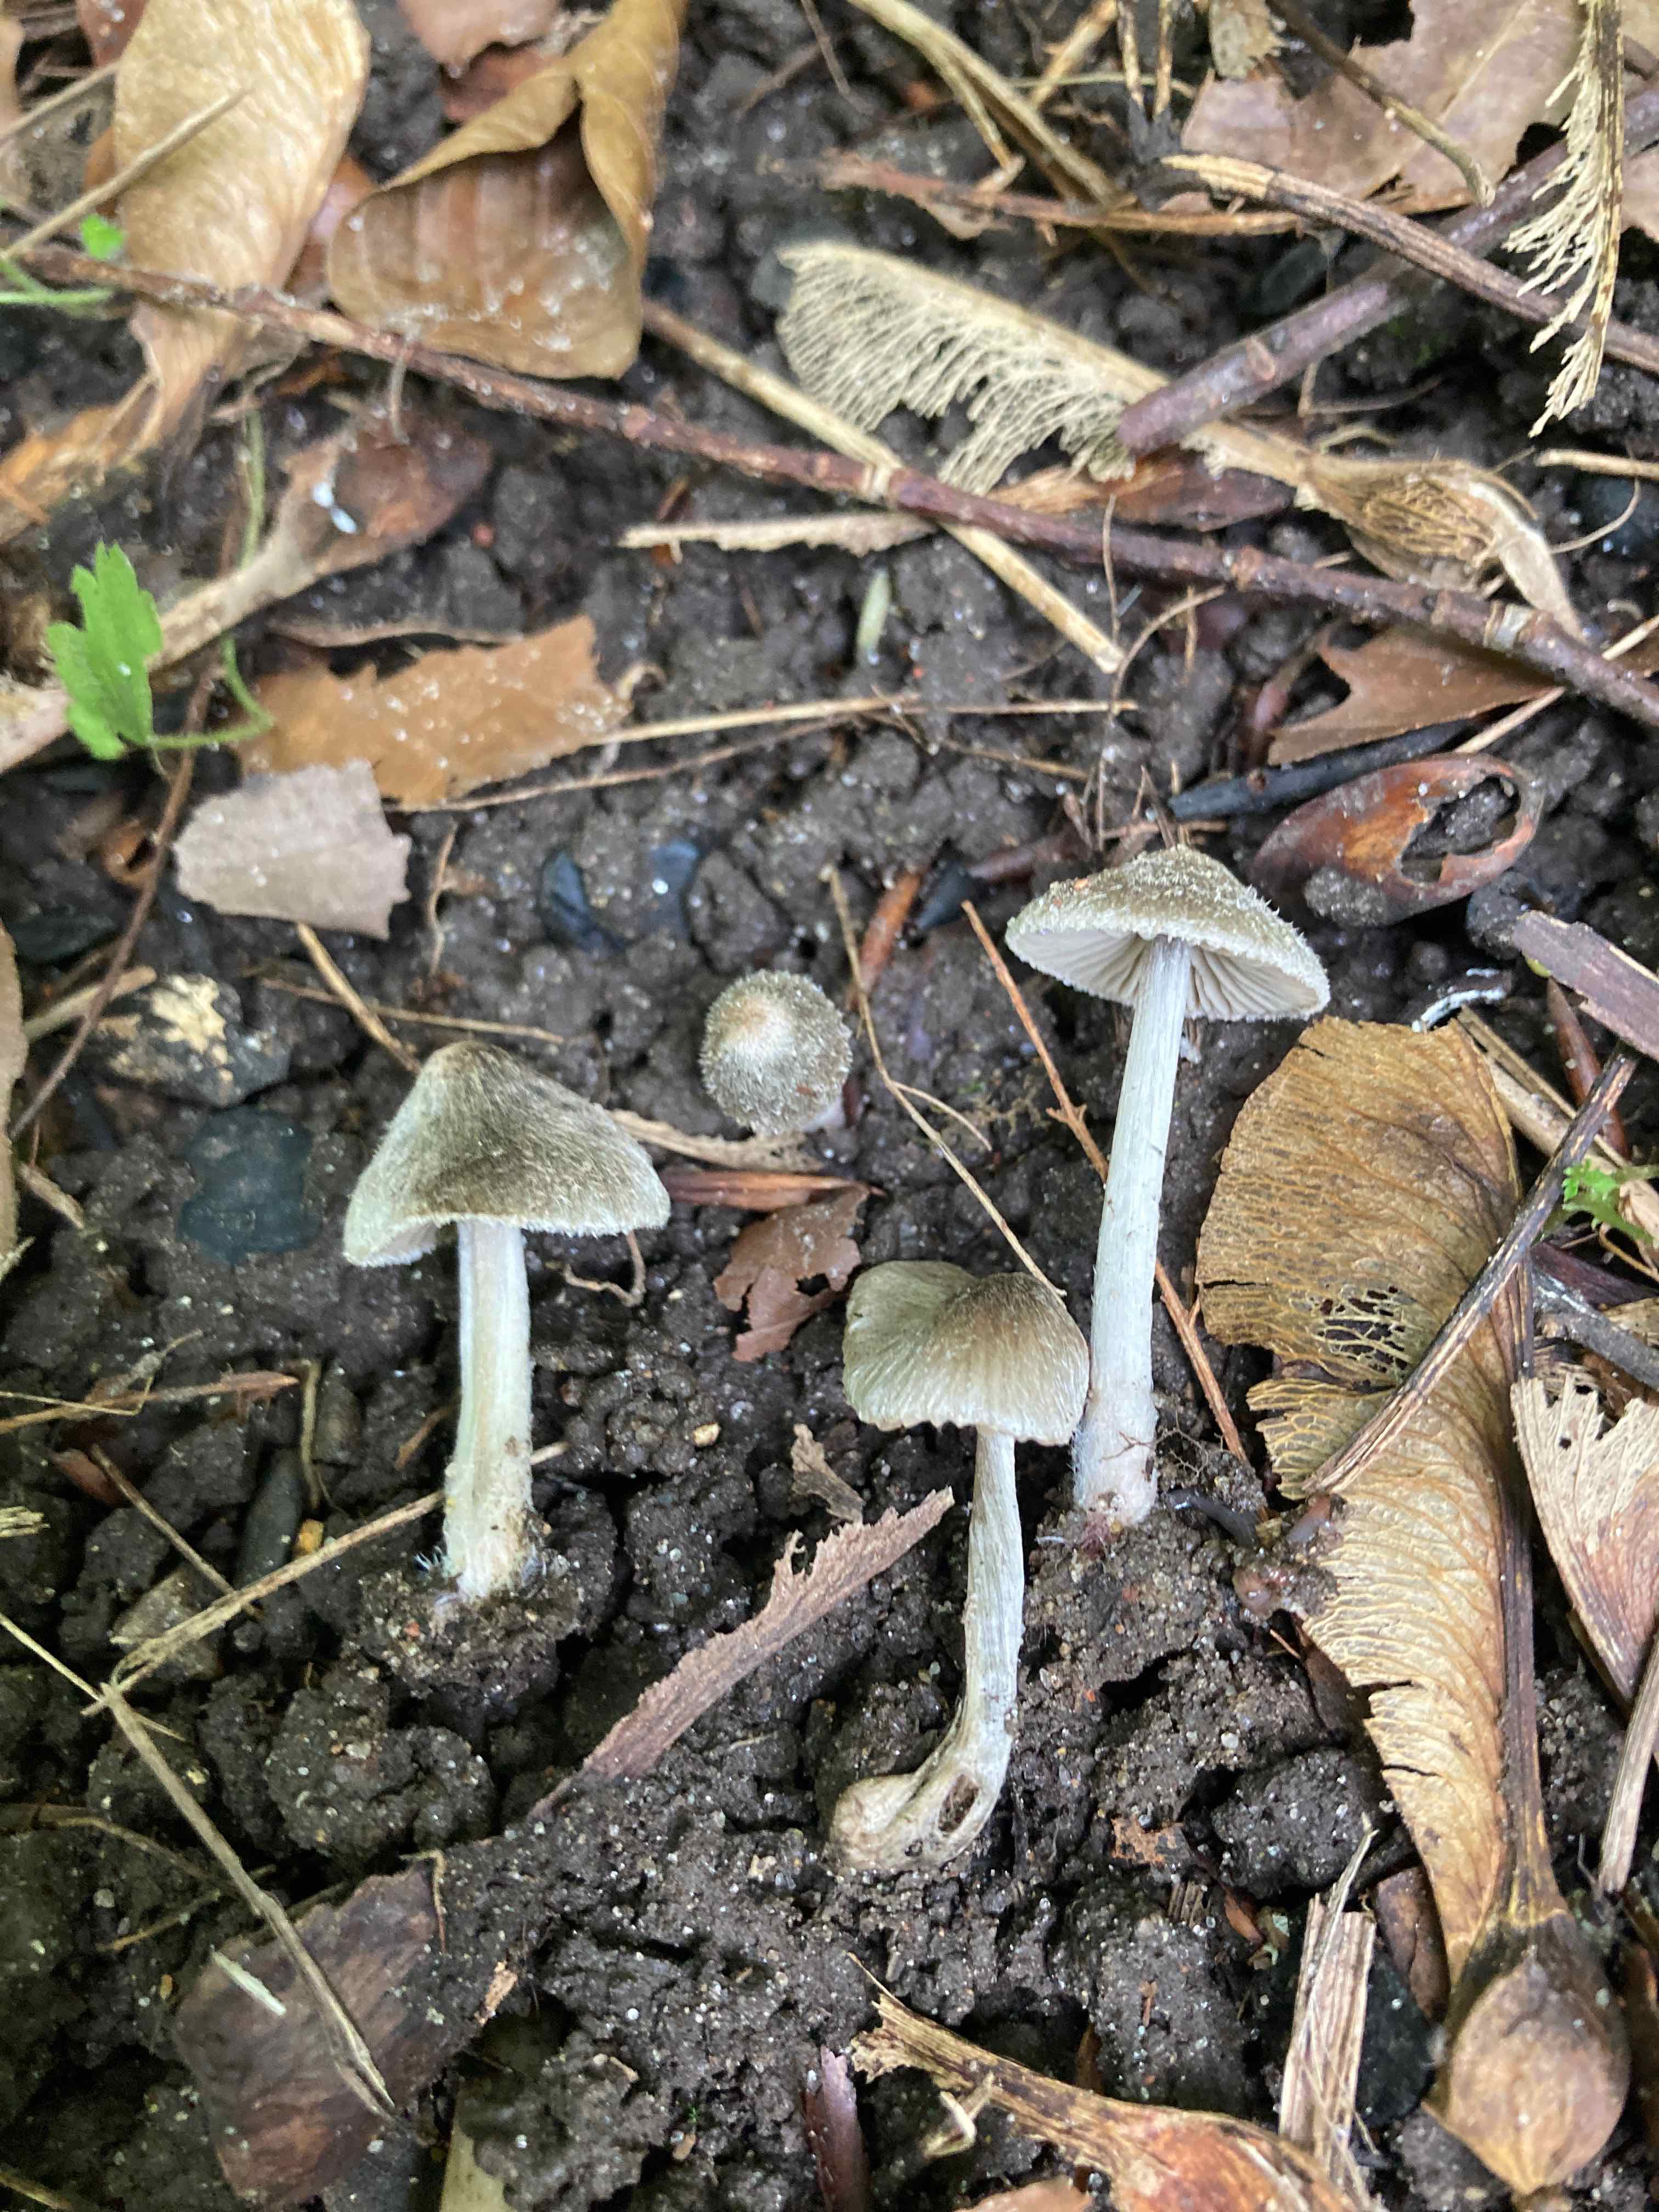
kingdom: Fungi
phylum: Basidiomycota
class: Agaricomycetes
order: Agaricales
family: Entolomataceae
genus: Entoloma
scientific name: Entoloma araneosum
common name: spindelvævs-rødblad
